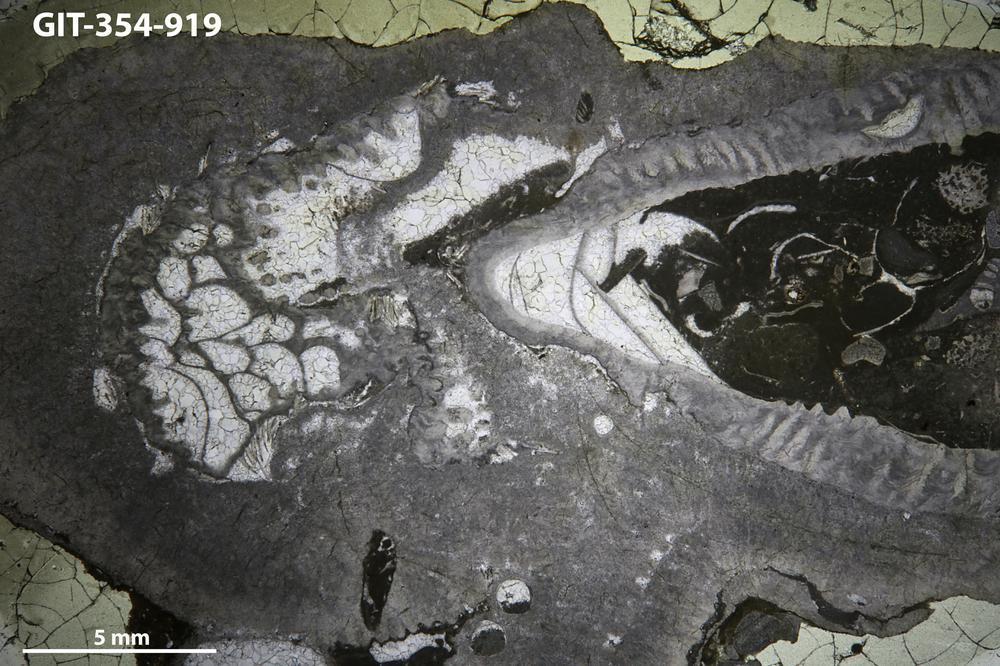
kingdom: Animalia
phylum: Porifera
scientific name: Porifera
